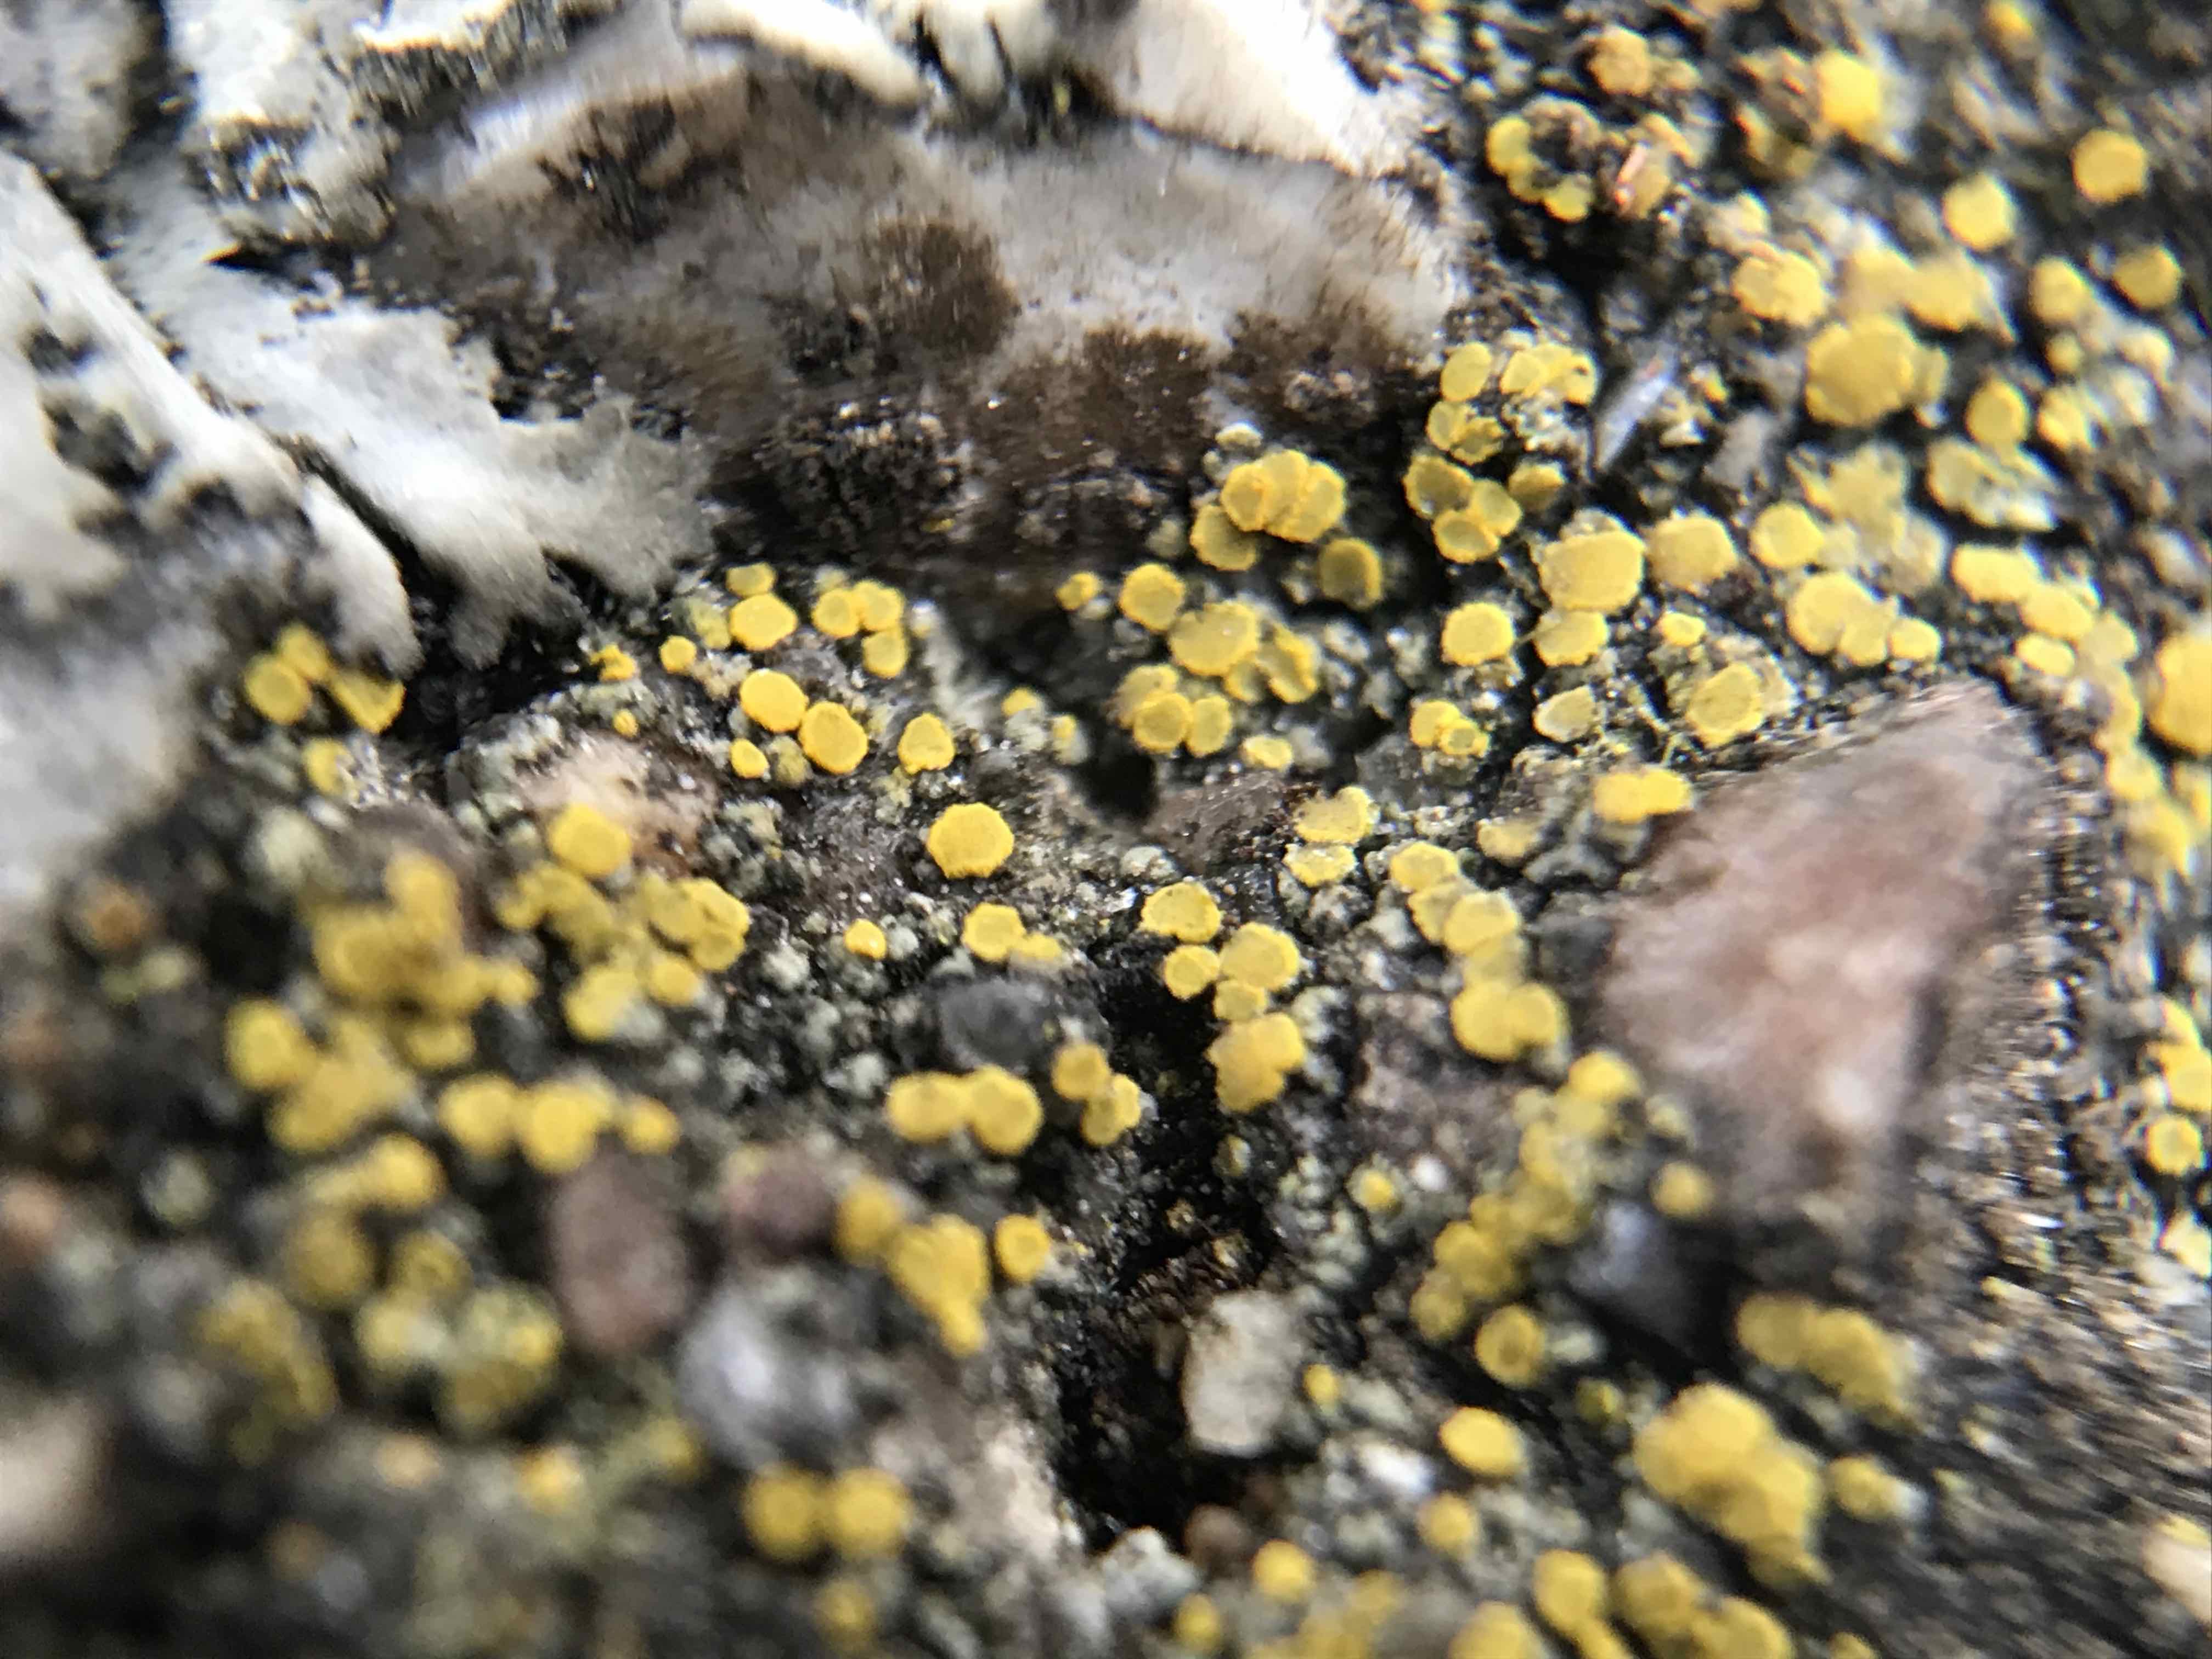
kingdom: Fungi
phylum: Ascomycota
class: Candelariomycetes
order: Candelariales
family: Candelariaceae
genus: Candelariella
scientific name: Candelariella aurella
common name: liden æggeblommelav
